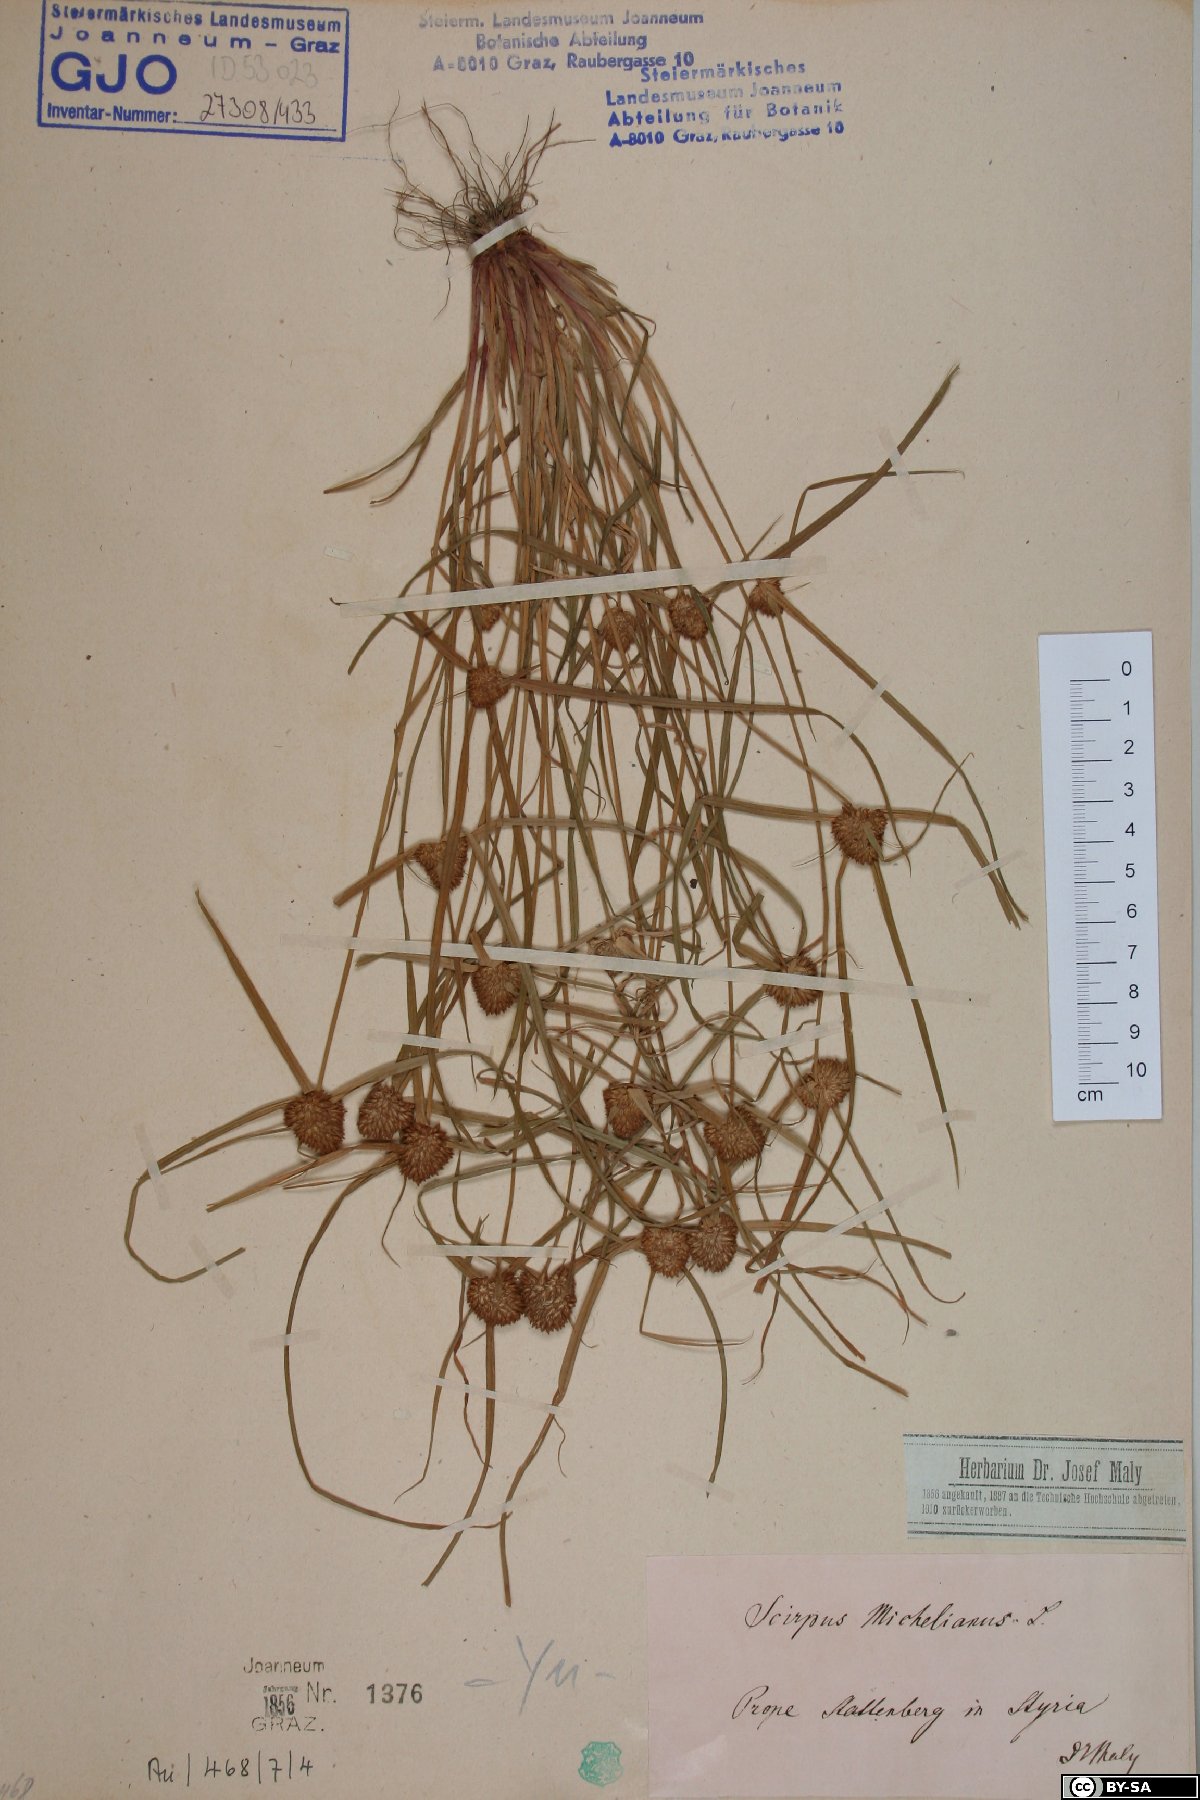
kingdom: Plantae
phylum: Tracheophyta
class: Liliopsida
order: Poales
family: Cyperaceae
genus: Cyperus
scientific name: Cyperus michelianus
